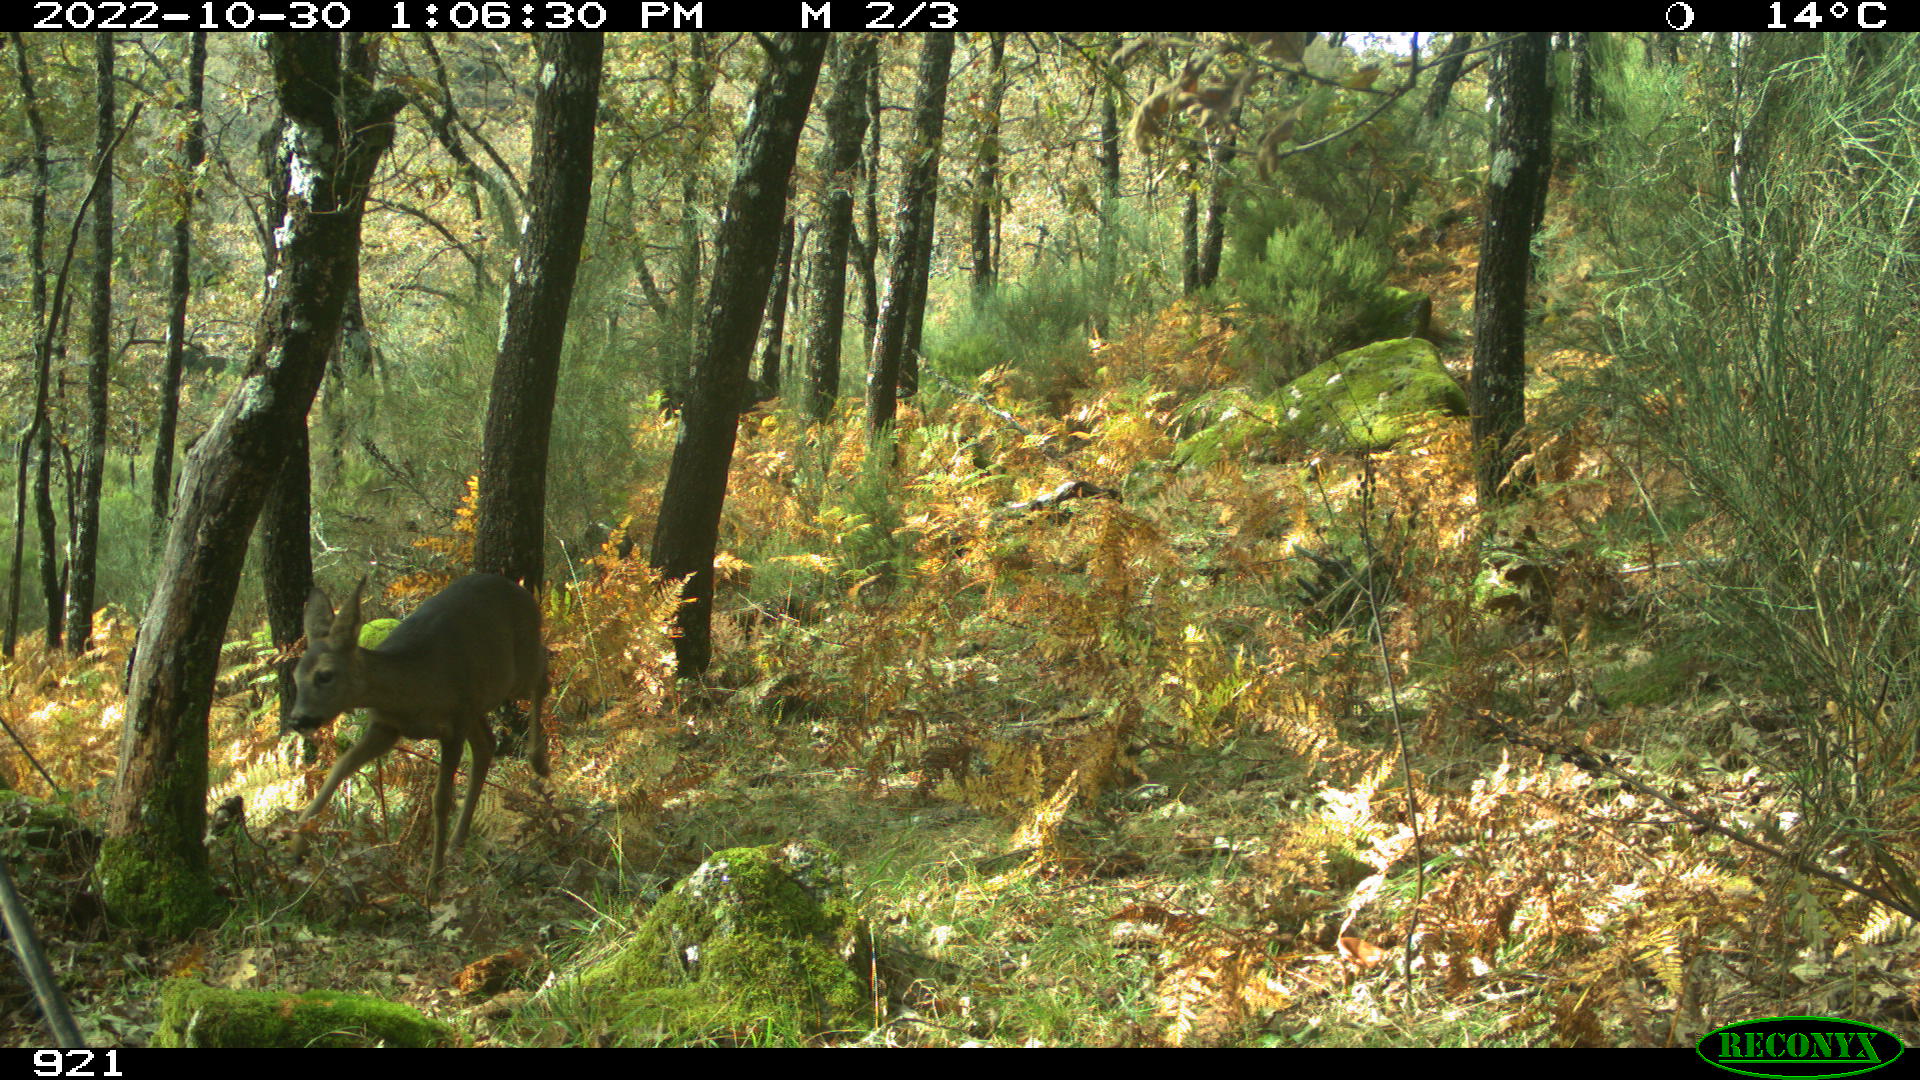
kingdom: Animalia
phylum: Chordata
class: Mammalia
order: Artiodactyla
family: Cervidae
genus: Capreolus
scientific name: Capreolus capreolus
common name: Western roe deer
